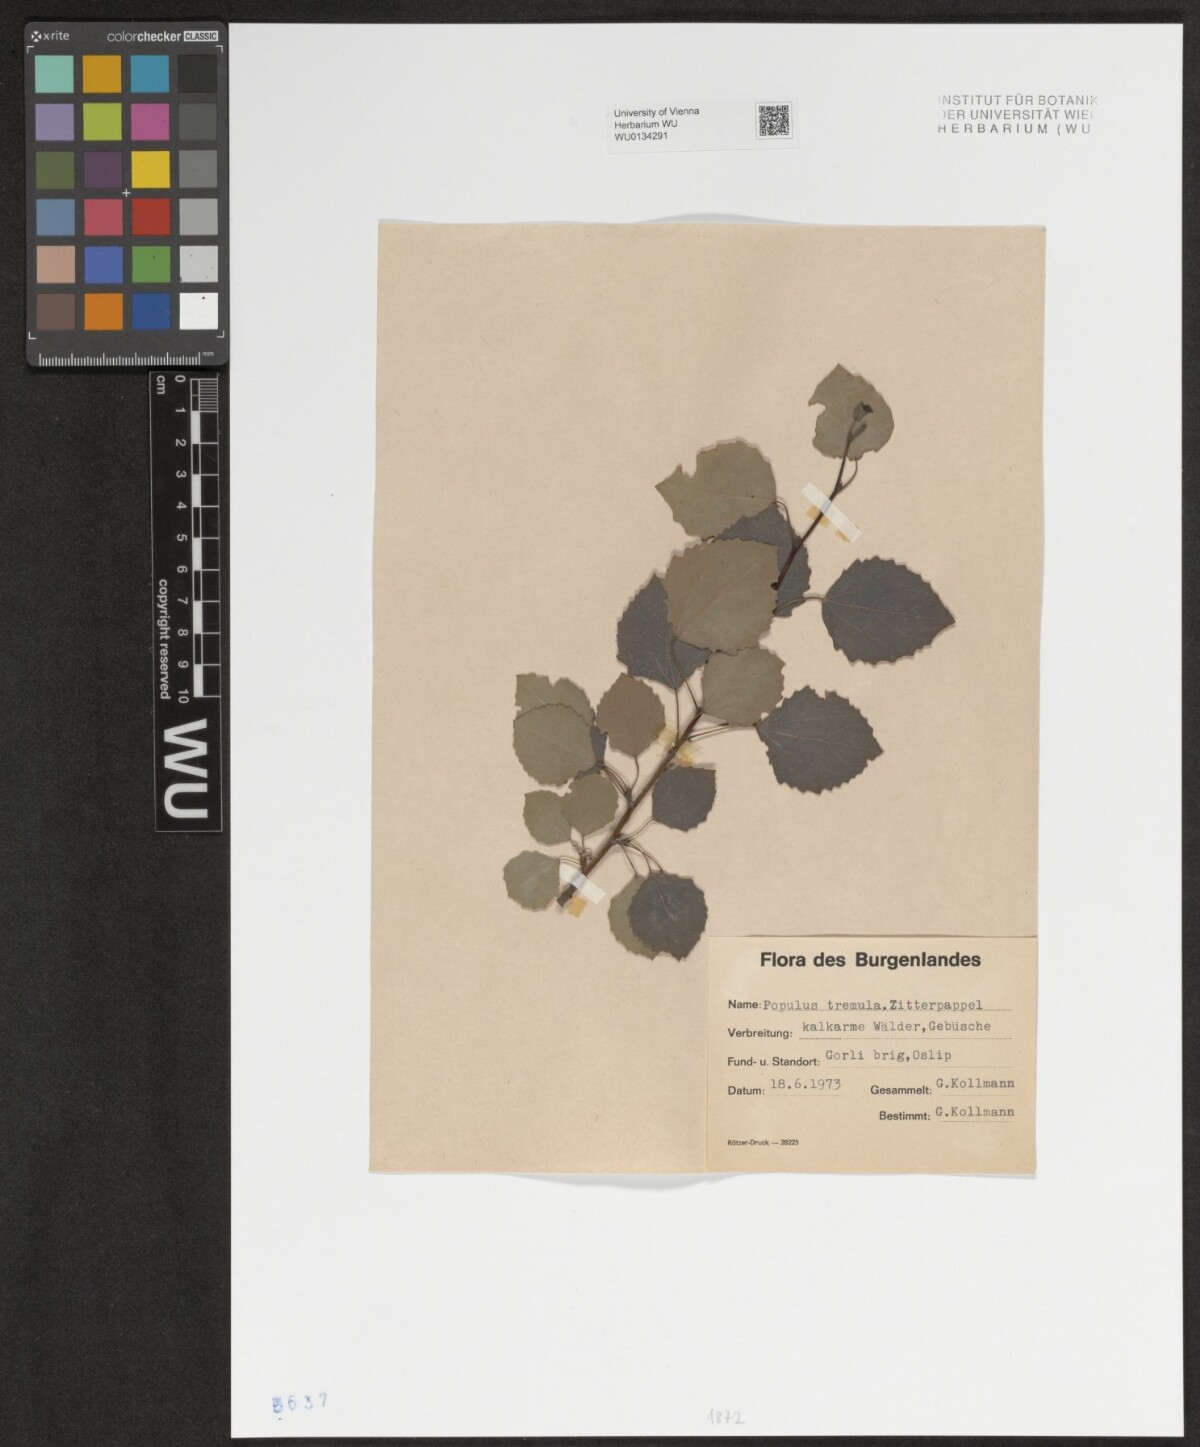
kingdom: Plantae
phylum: Tracheophyta
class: Magnoliopsida
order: Malpighiales
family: Salicaceae
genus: Populus
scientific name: Populus tremula
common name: European aspen
